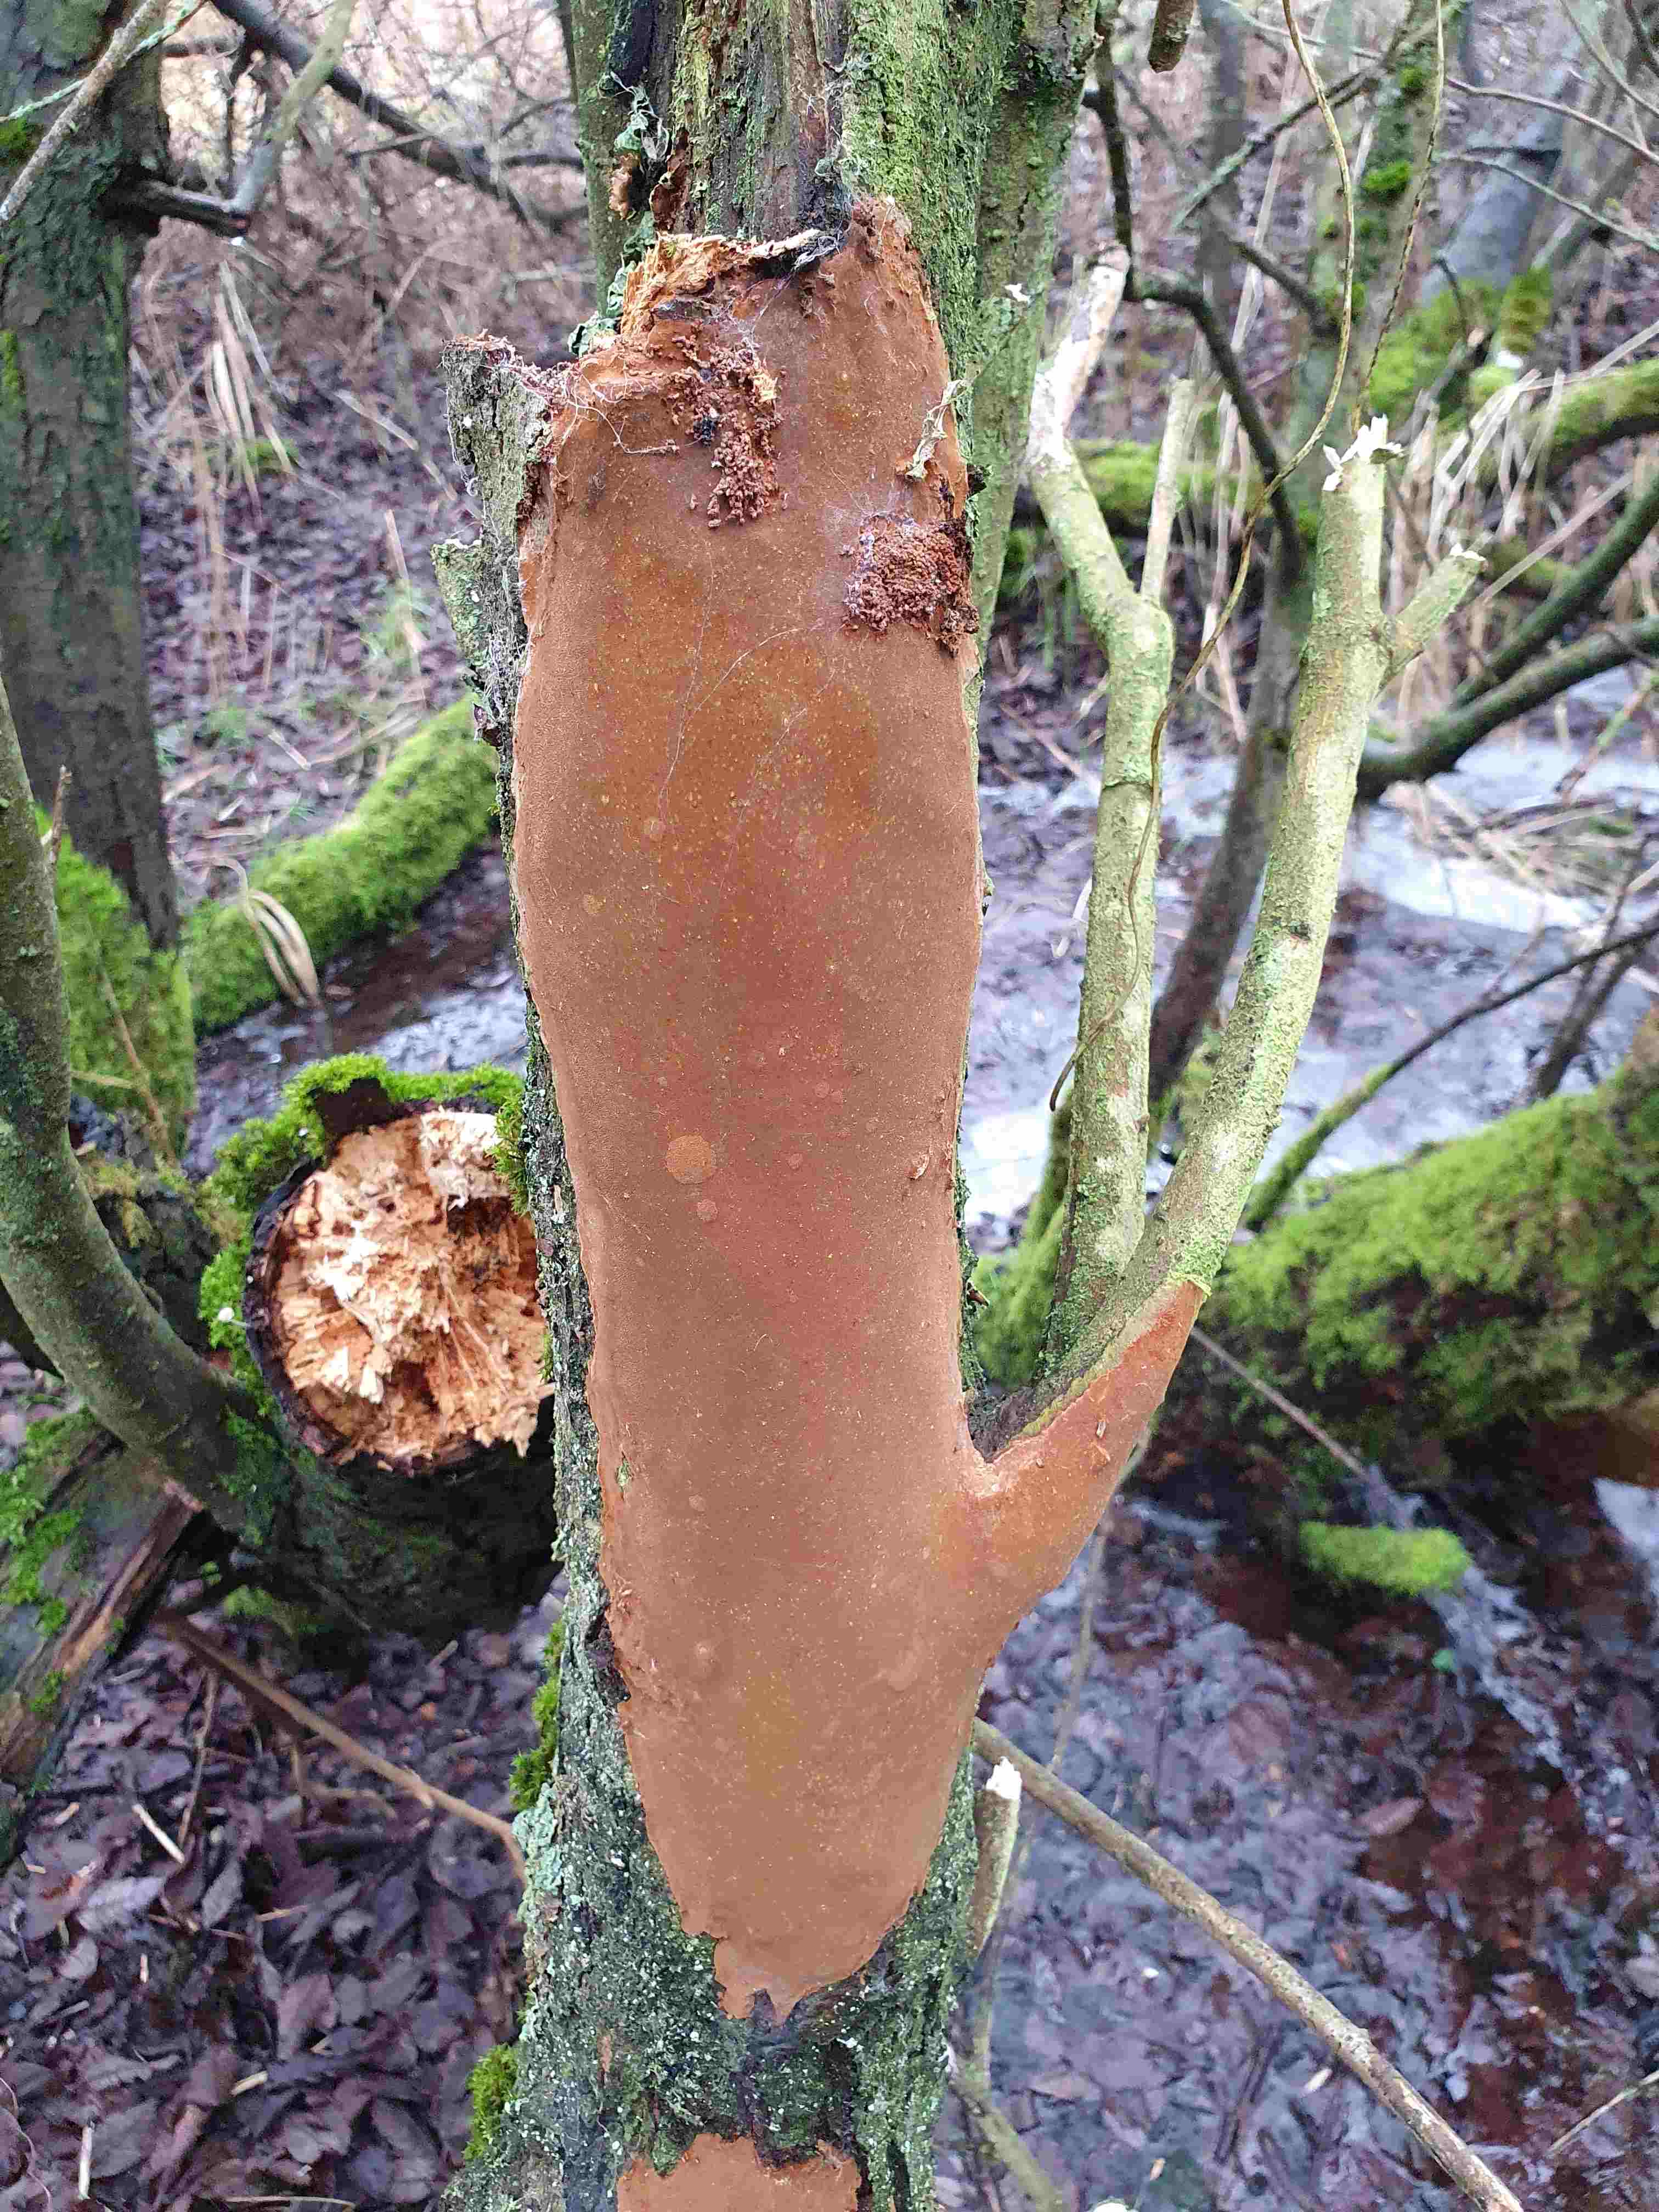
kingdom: Fungi
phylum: Basidiomycota
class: Agaricomycetes
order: Hymenochaetales
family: Hymenochaetaceae
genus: Fomitiporia
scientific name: Fomitiporia punctata
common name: pude-ildporesvamp
